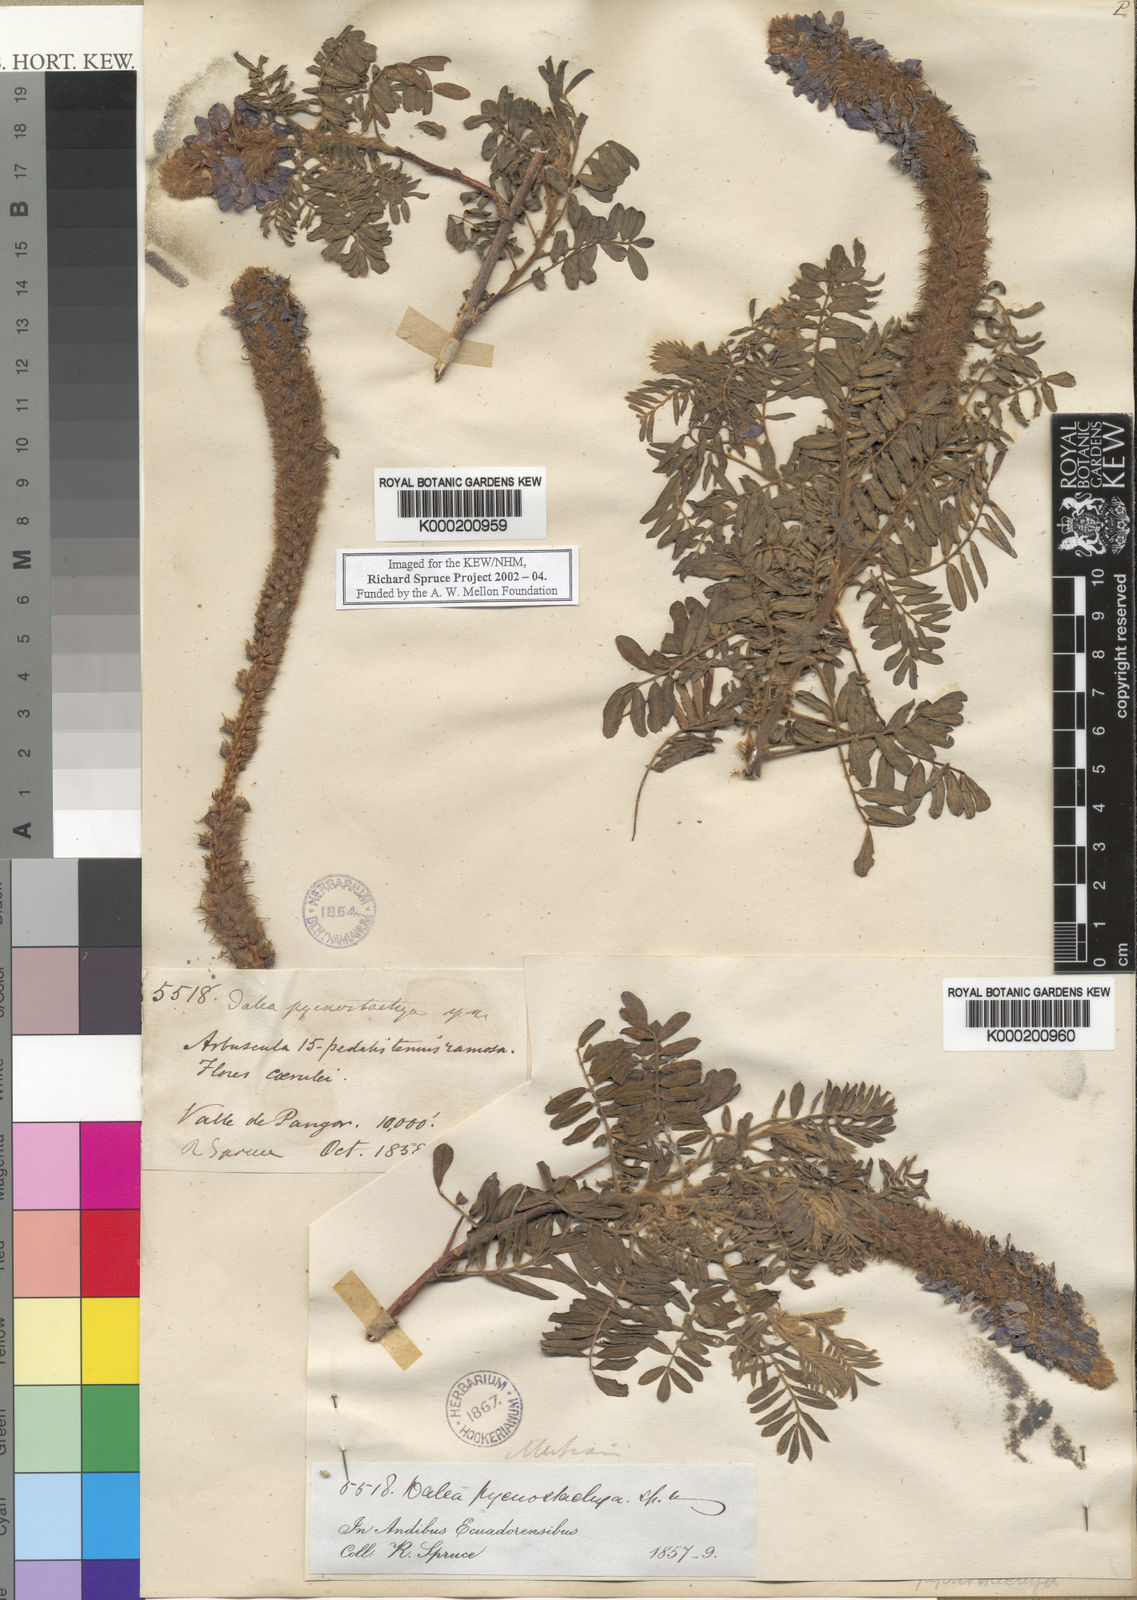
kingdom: Plantae
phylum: Tracheophyta
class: Magnoliopsida
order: Fabales
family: Fabaceae
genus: Dalea
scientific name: Dalea
